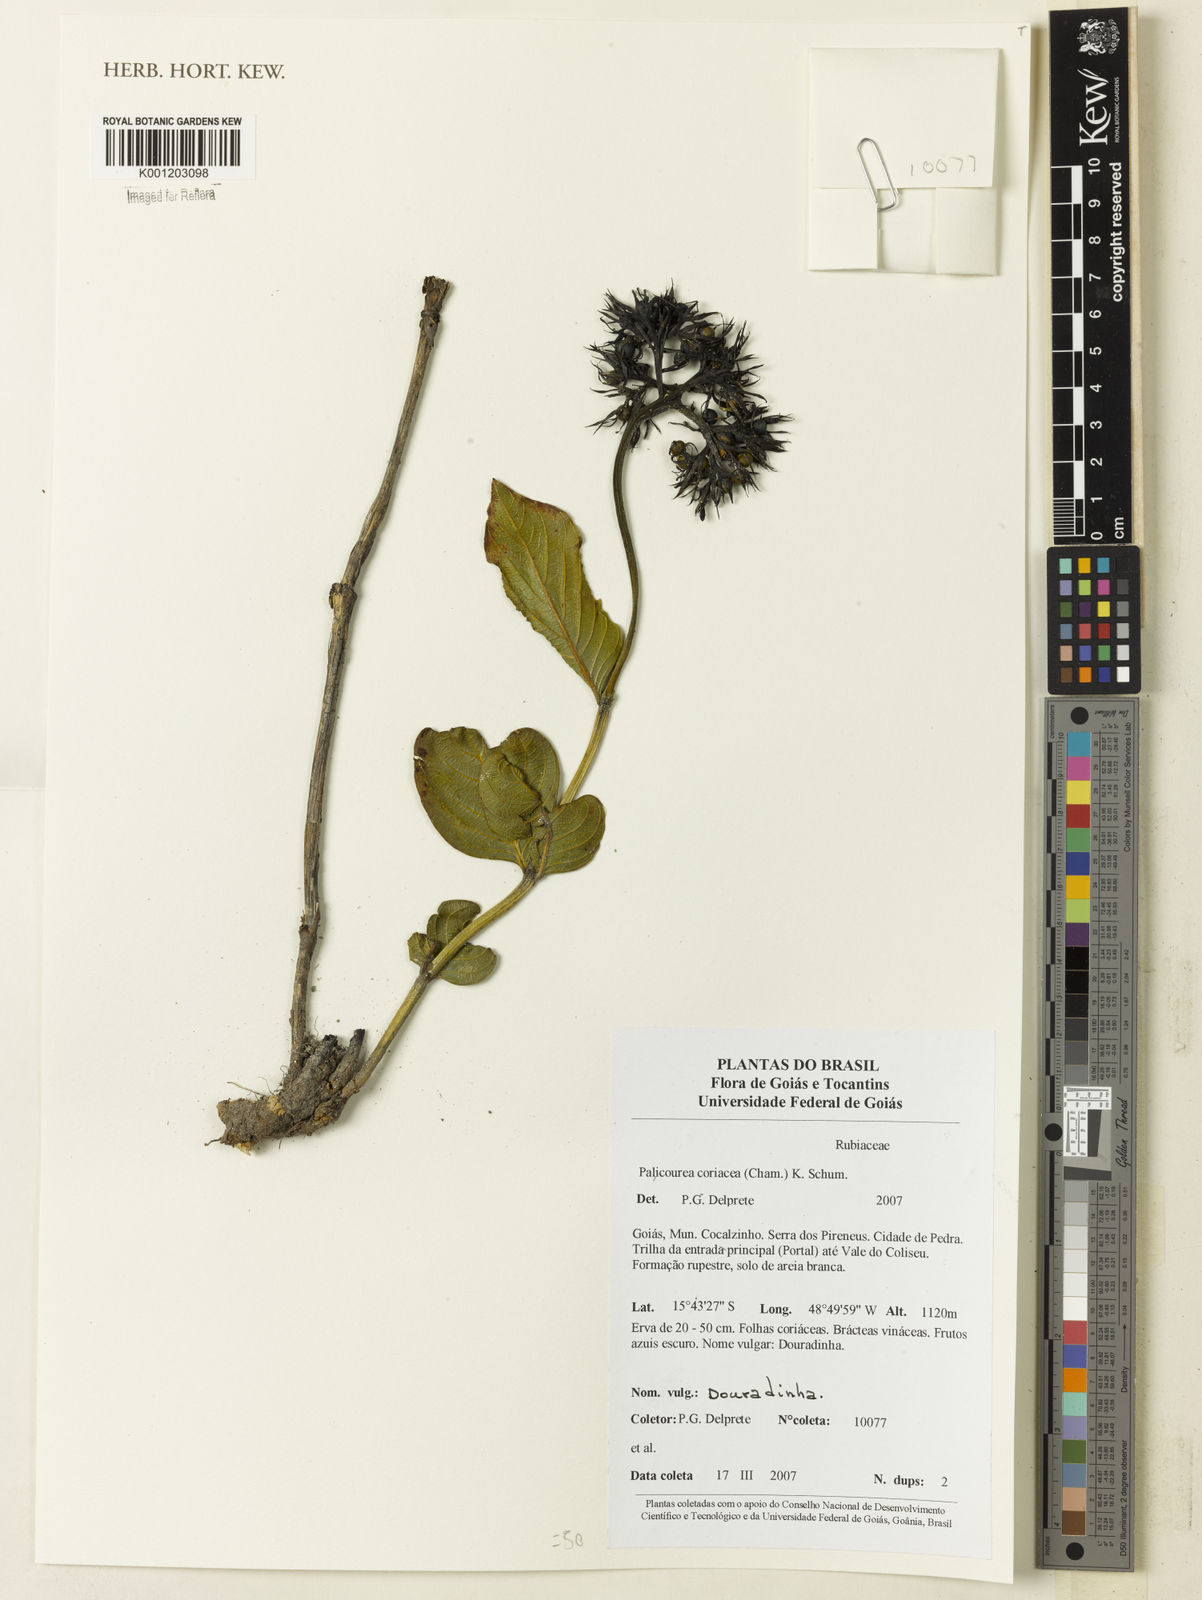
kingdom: Plantae
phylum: Tracheophyta
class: Magnoliopsida
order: Gentianales
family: Rubiaceae
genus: Palicourea
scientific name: Palicourea coriacea
